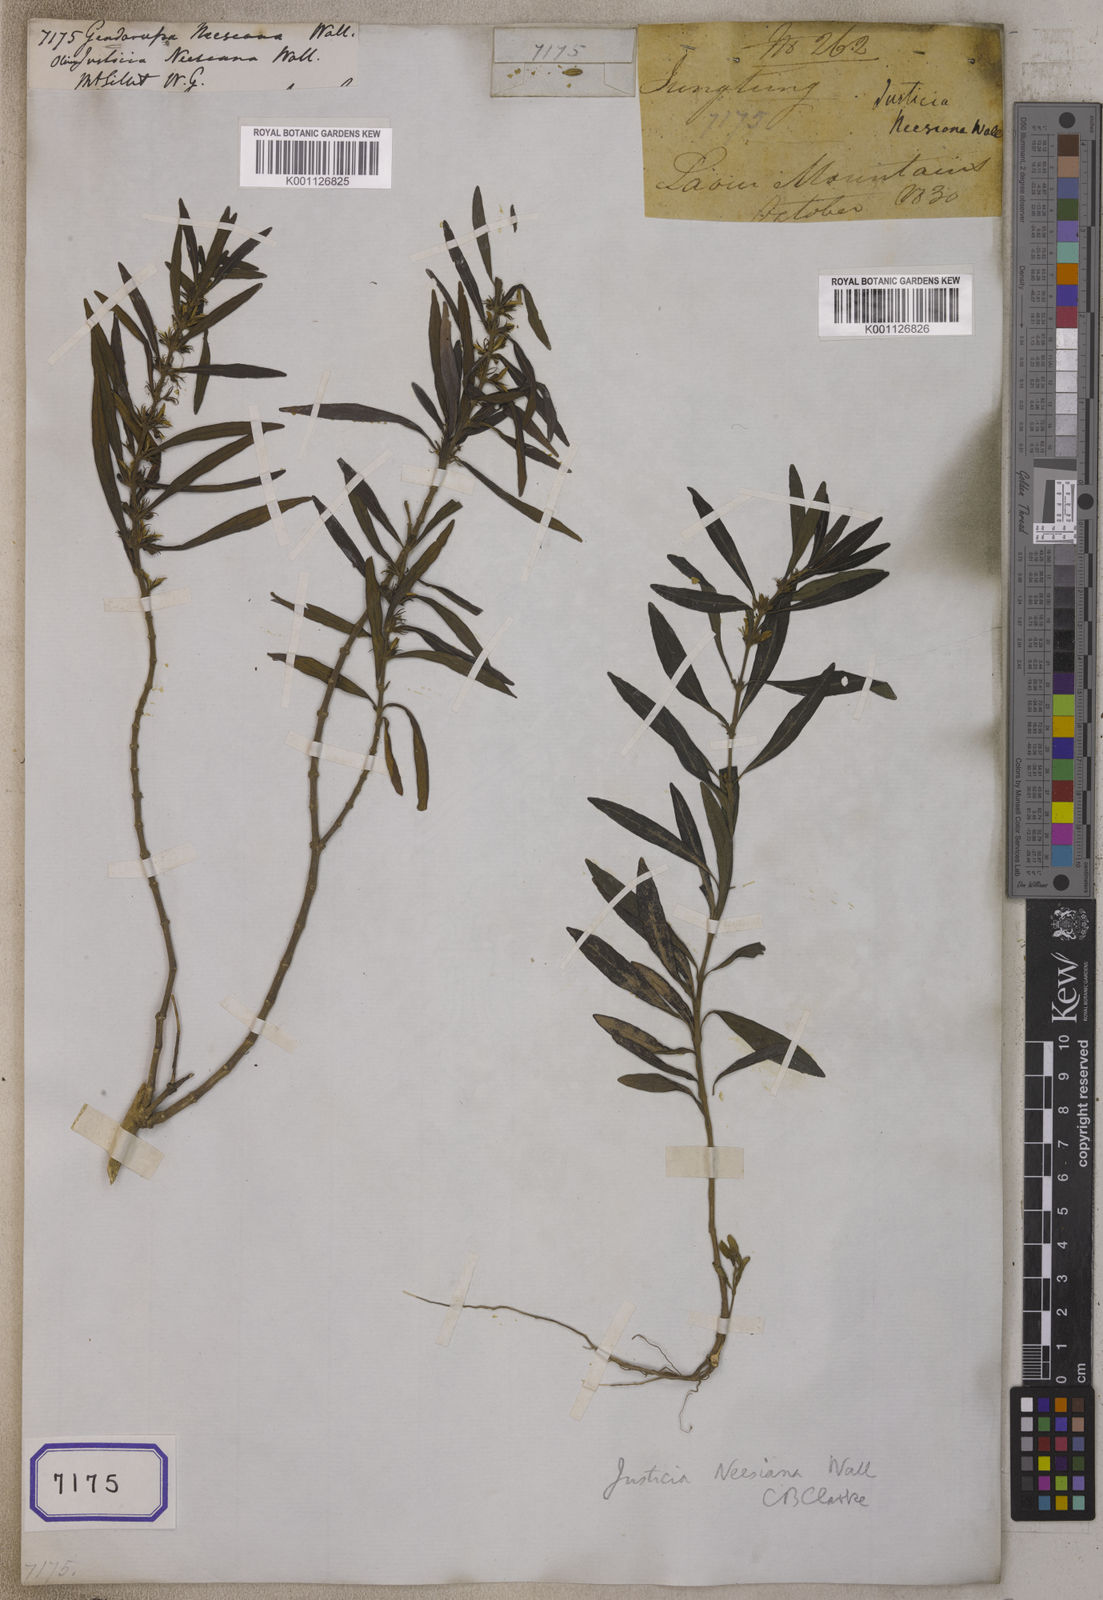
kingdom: Plantae
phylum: Tracheophyta
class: Magnoliopsida
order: Lamiales
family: Acanthaceae
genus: Justicia
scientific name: Justicia neesiana
